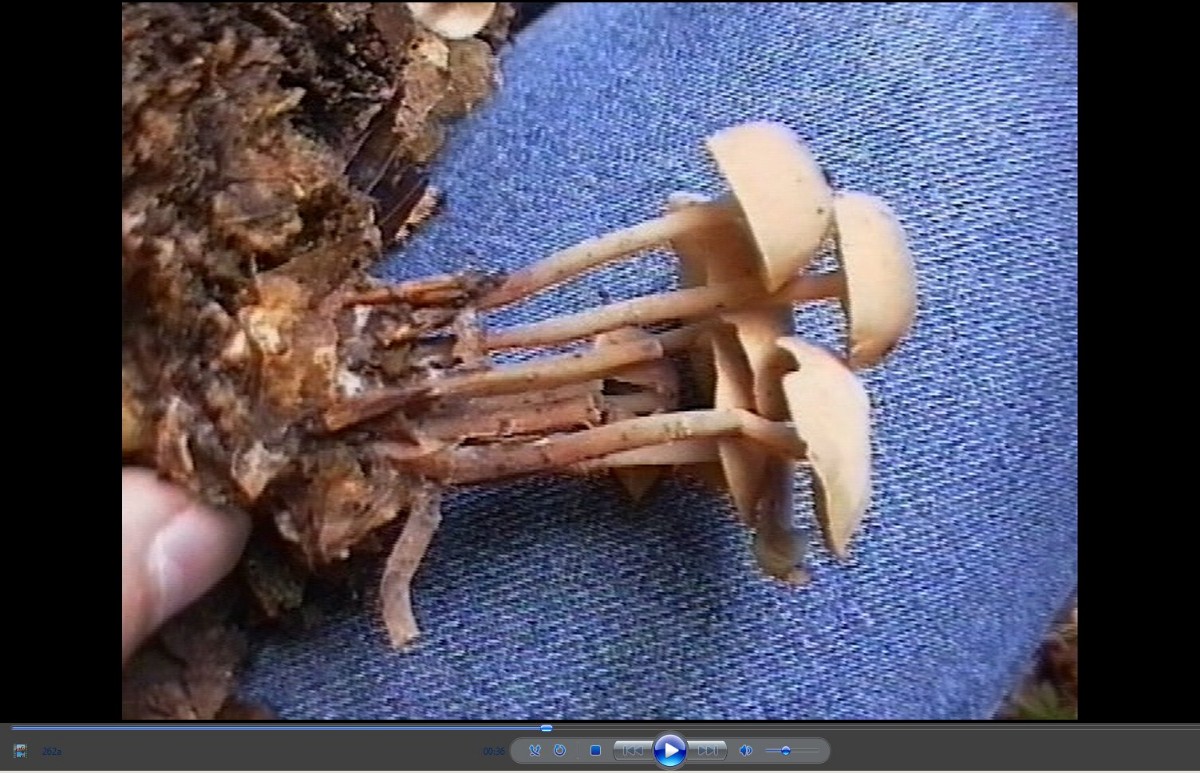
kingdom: Fungi
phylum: Basidiomycota
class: Agaricomycetes
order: Agaricales
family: Omphalotaceae
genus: Collybiopsis
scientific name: Collybiopsis confluens
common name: knippe-fladhat
